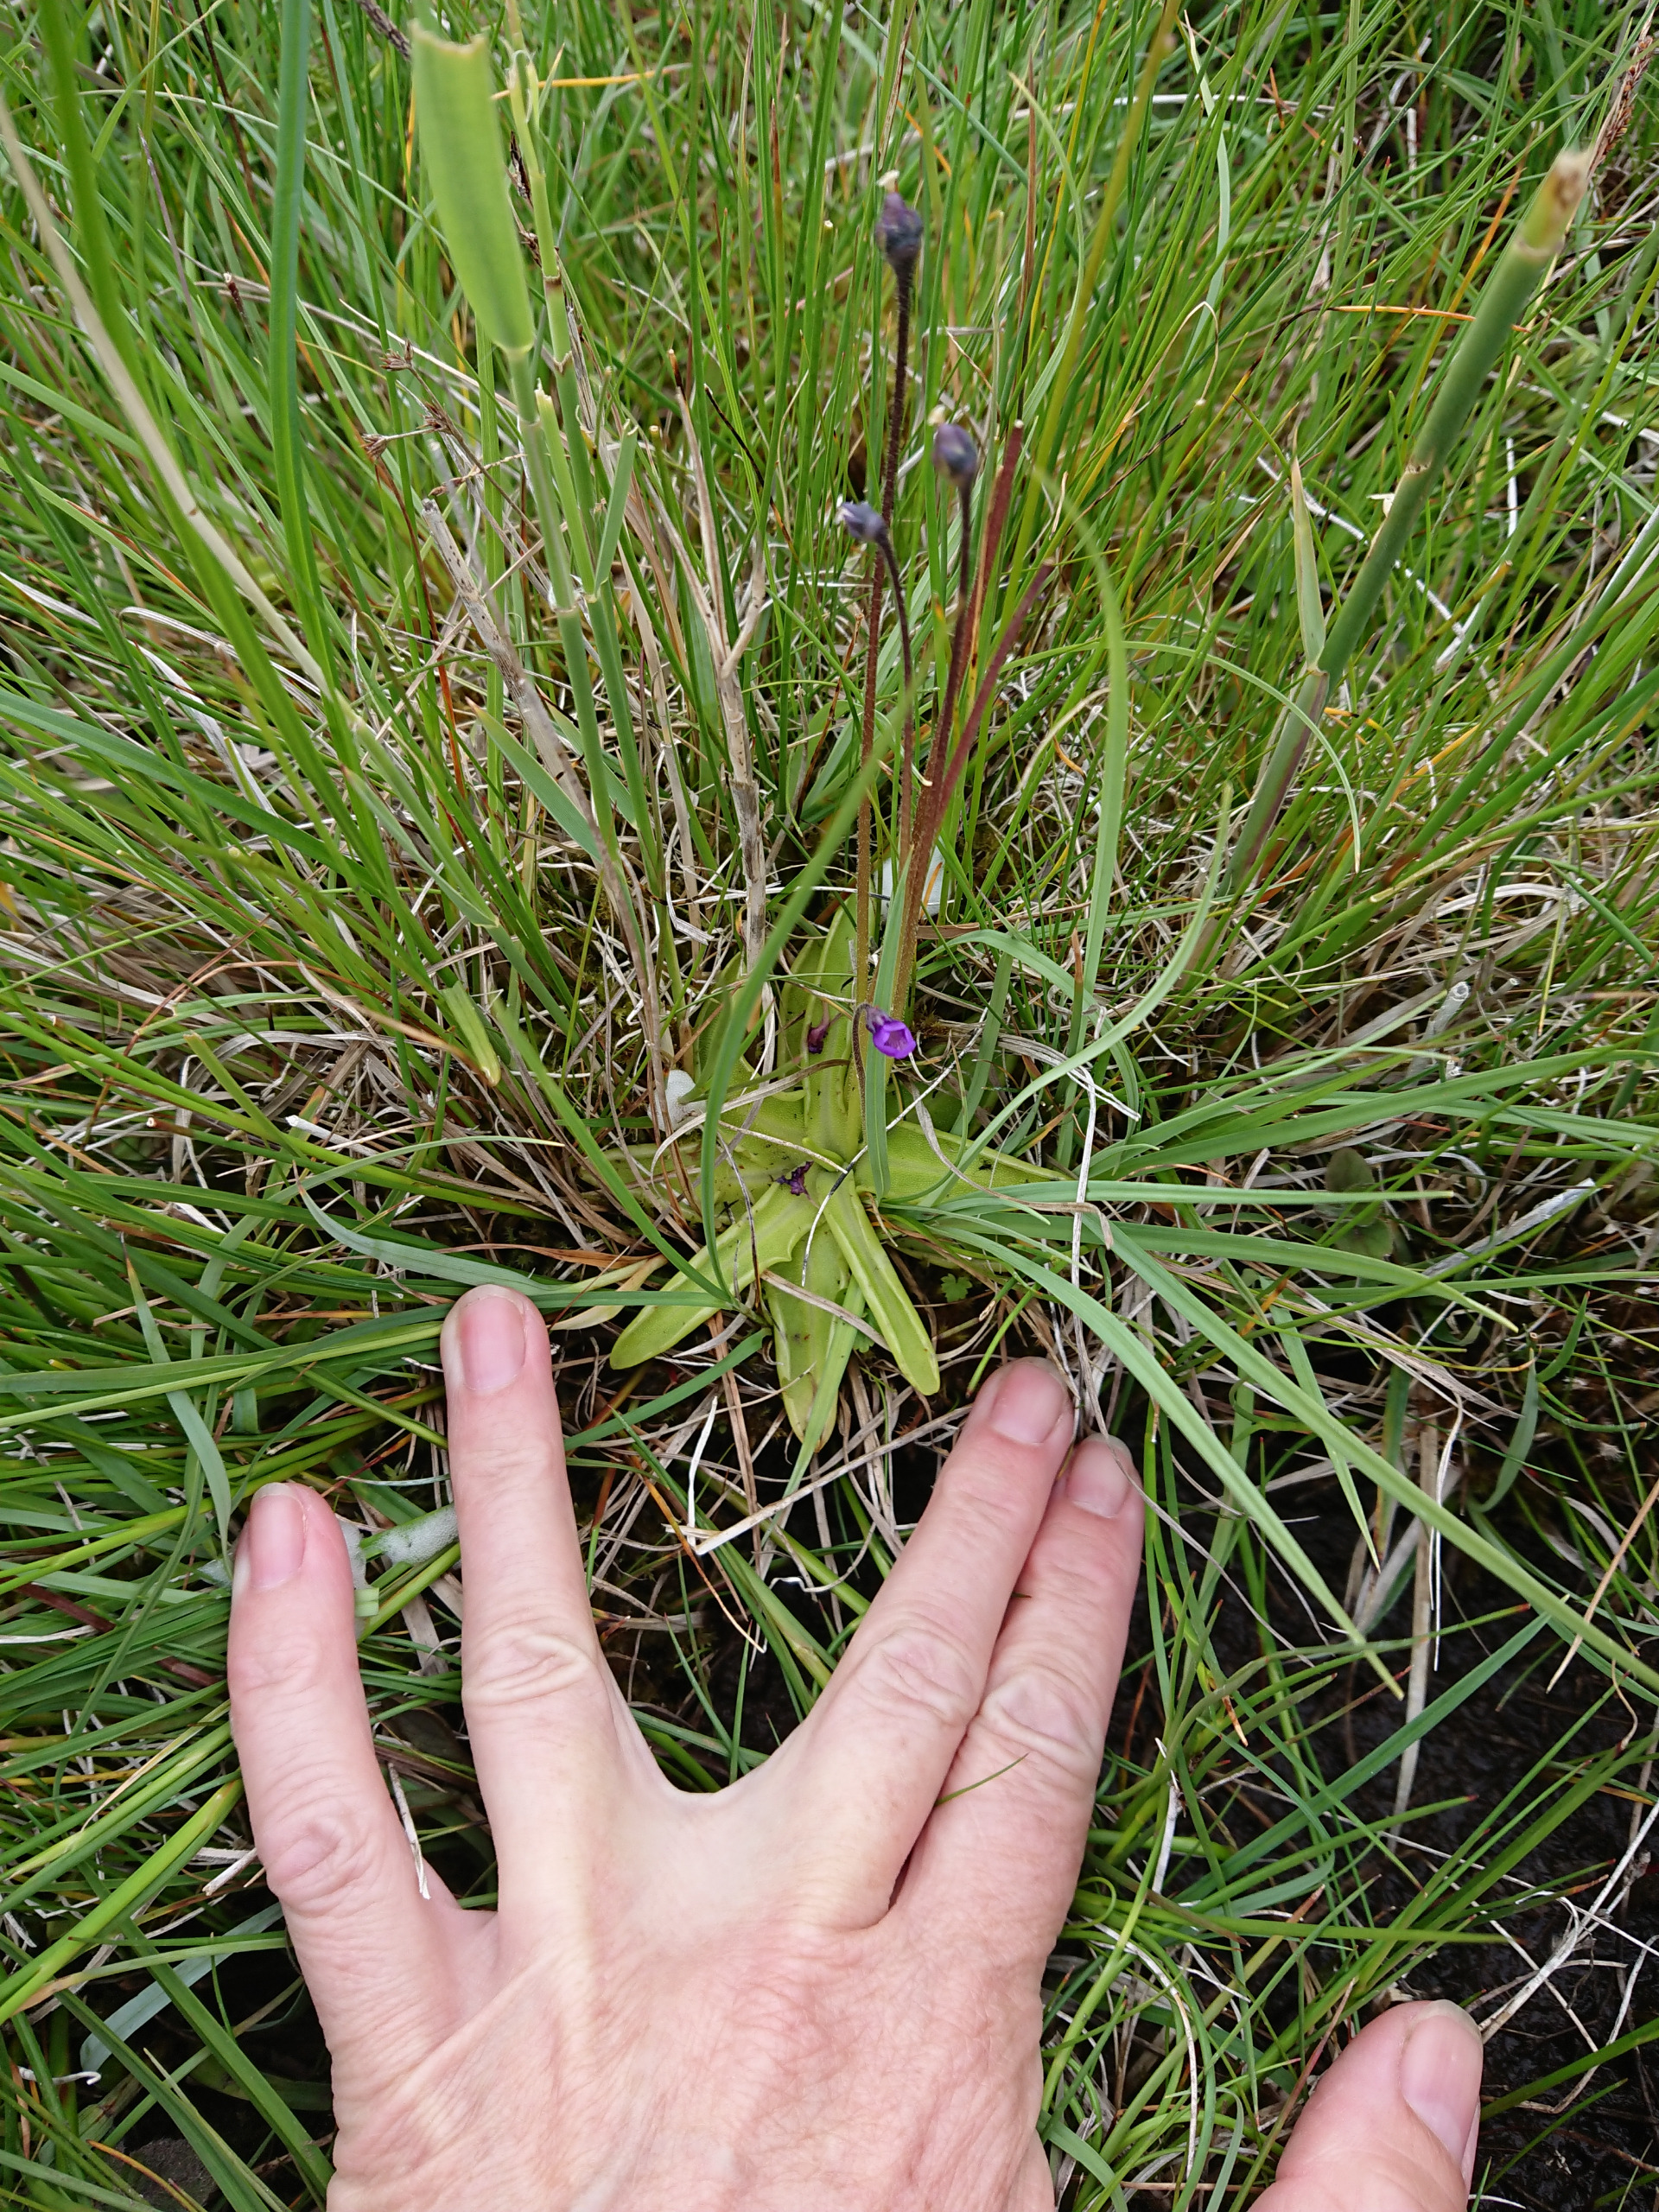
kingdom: Plantae
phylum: Tracheophyta
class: Magnoliopsida
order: Lamiales
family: Lentibulariaceae
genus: Pinguicula
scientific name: Pinguicula vulgaris
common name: Vibefedt
